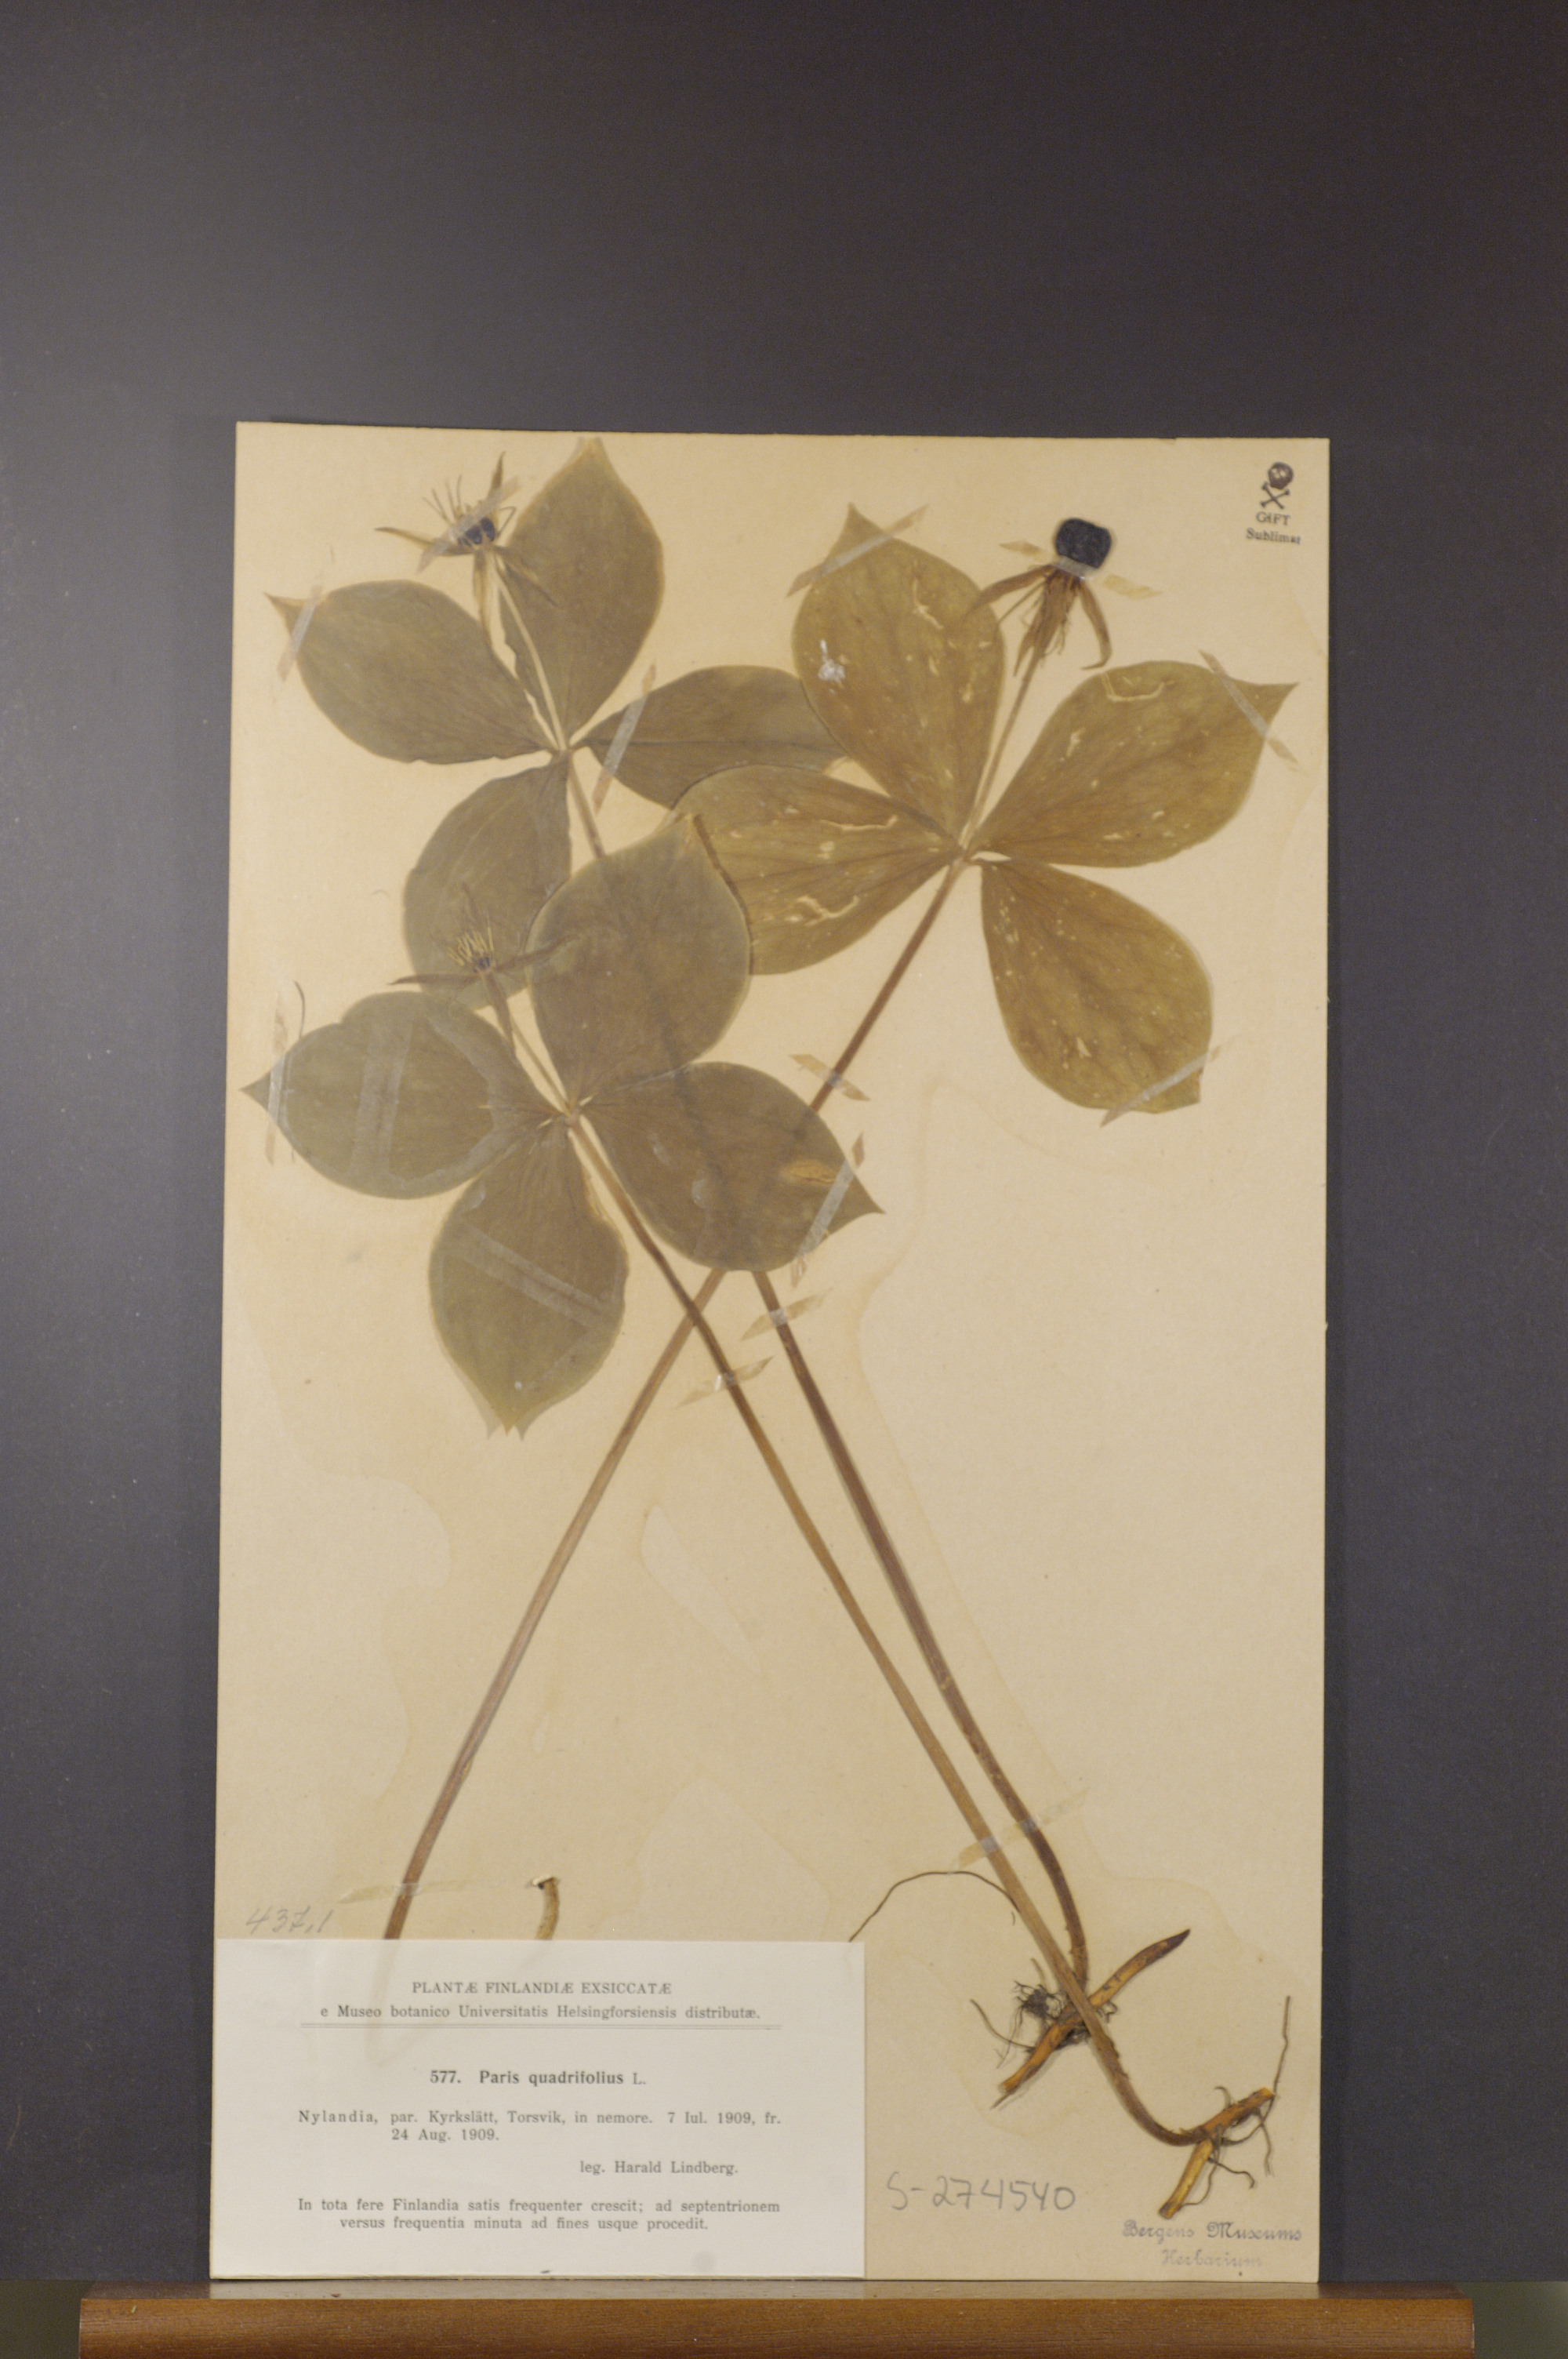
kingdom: Plantae
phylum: Tracheophyta
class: Liliopsida
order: Liliales
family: Melanthiaceae
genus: Paris
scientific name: Paris quadrifolia
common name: Herb-paris
